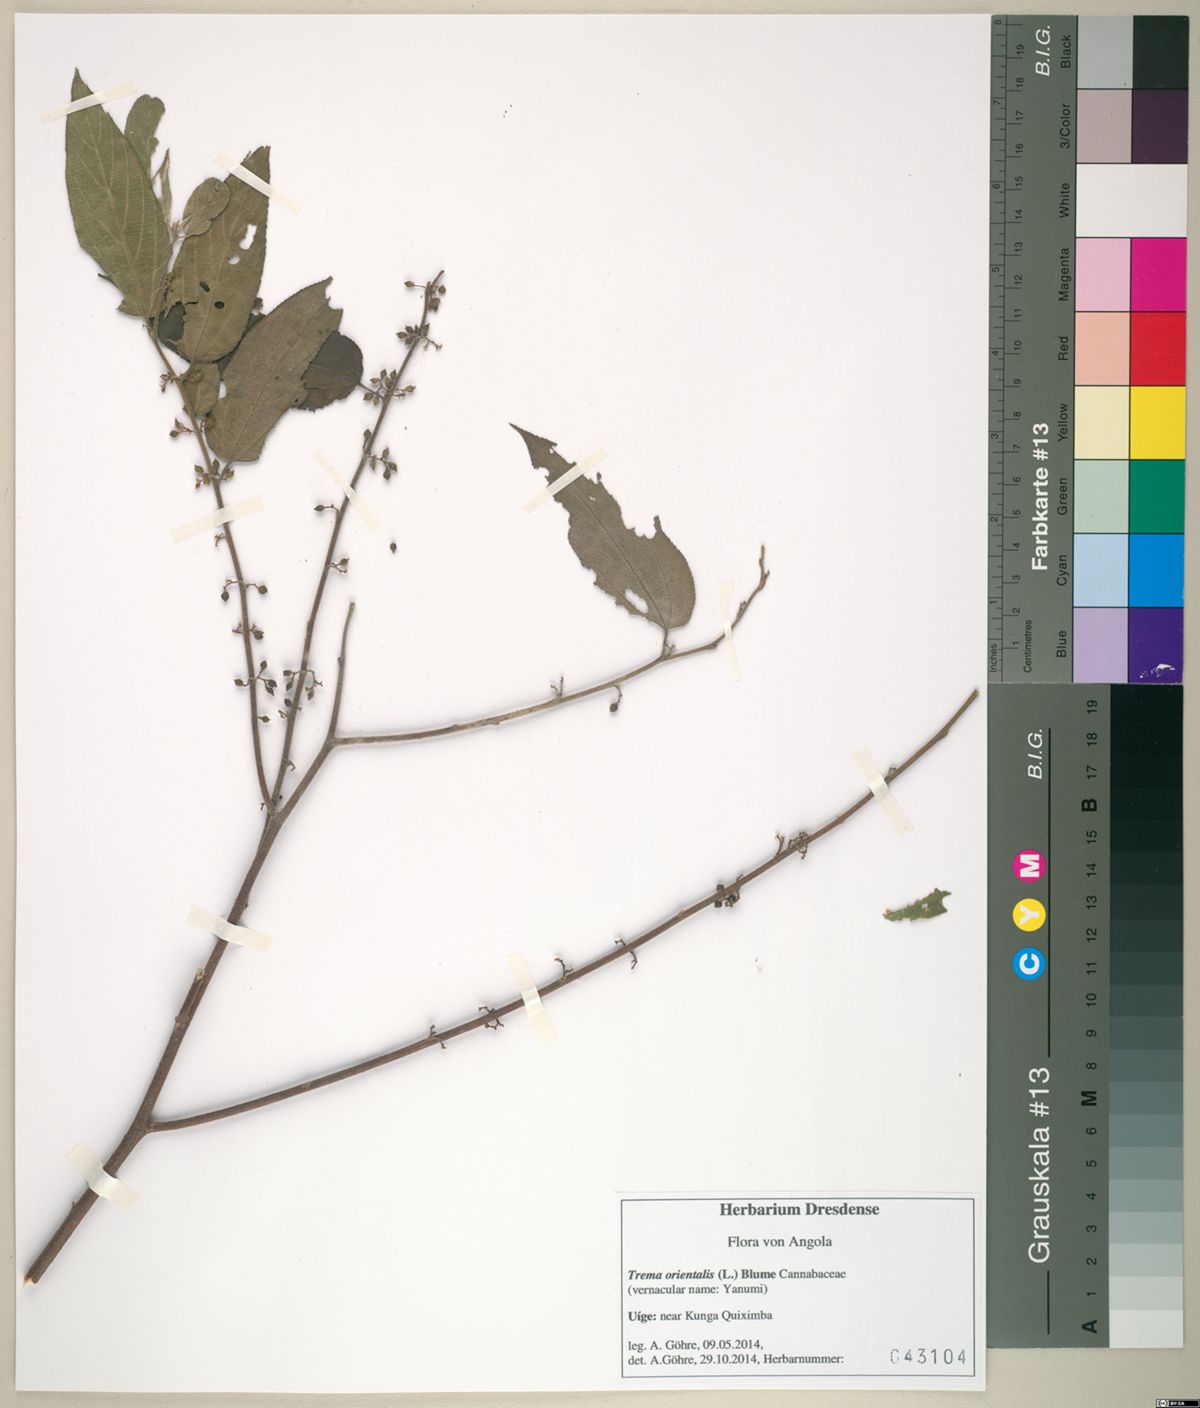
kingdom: Plantae
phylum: Tracheophyta
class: Magnoliopsida
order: Rosales
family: Cannabaceae
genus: Trema
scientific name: Trema orientale
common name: Indian charcoal tree
